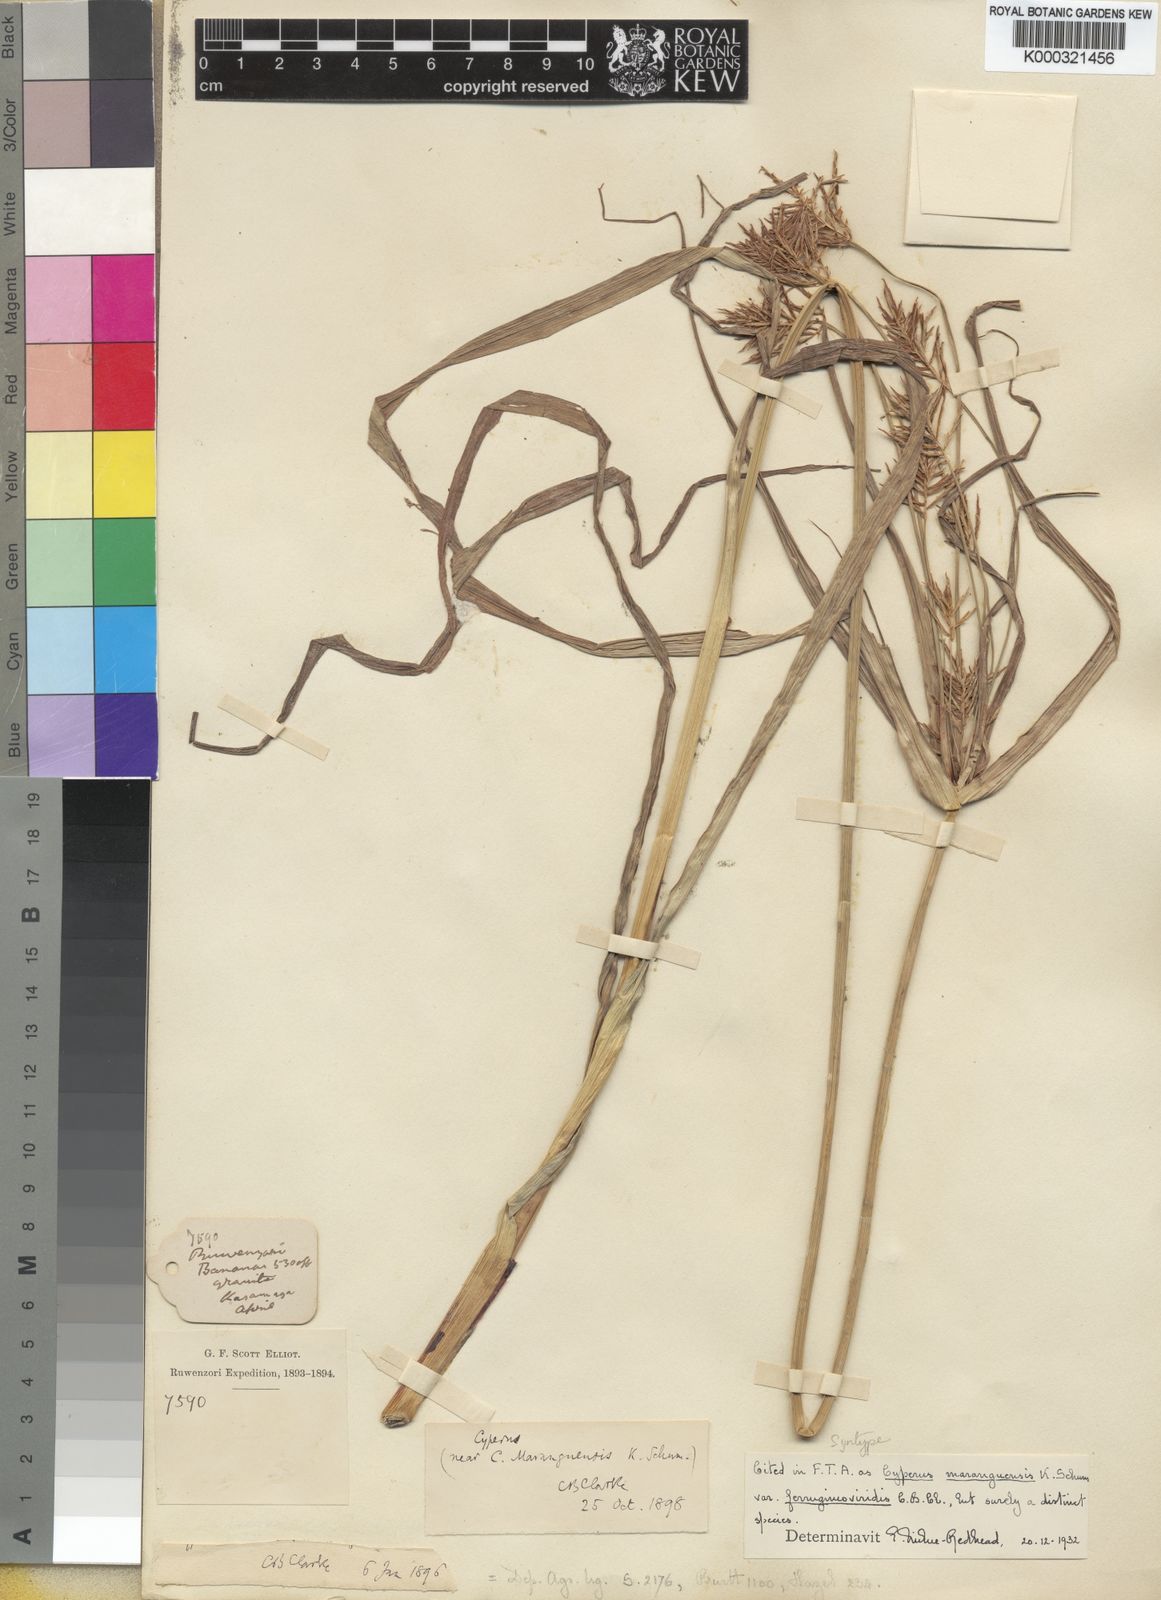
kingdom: Plantae
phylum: Tracheophyta
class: Liliopsida
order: Poales
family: Cyperaceae
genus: Cyperus
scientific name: Cyperus
